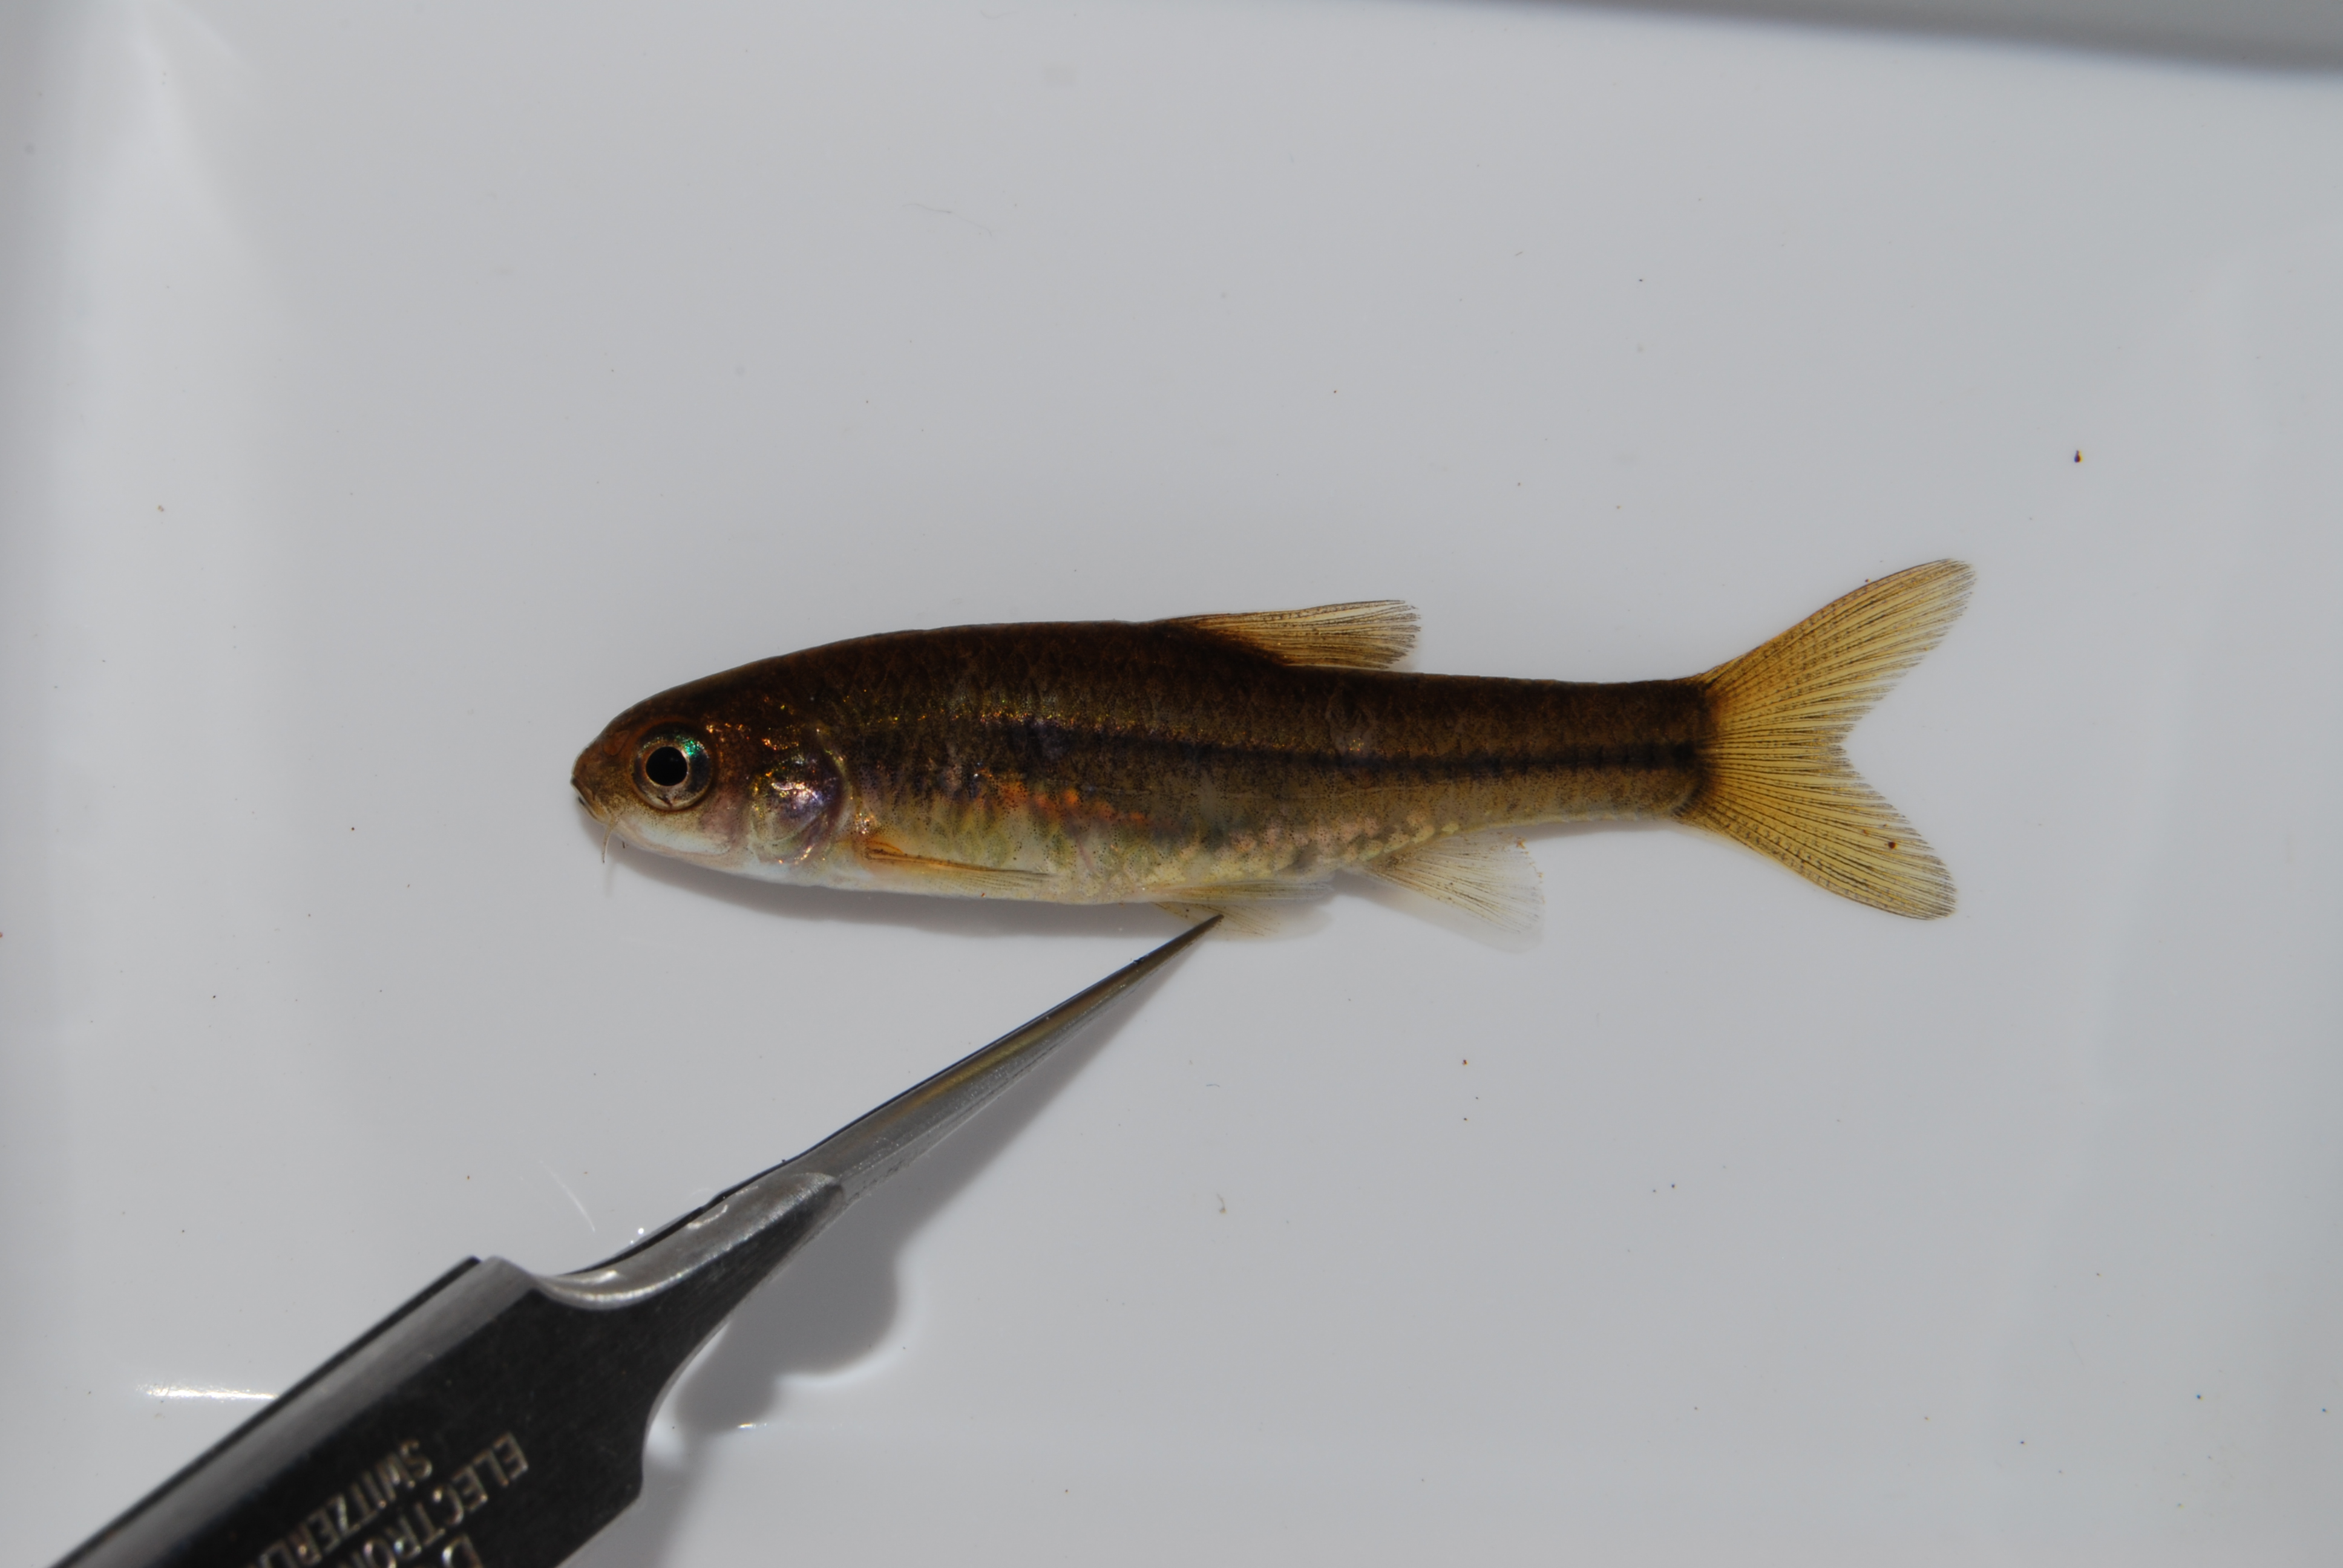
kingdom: Animalia
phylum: Chordata
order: Cypriniformes
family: Cyprinidae
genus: Enteromius
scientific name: Enteromius anoplus
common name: Chubbyhead barb
